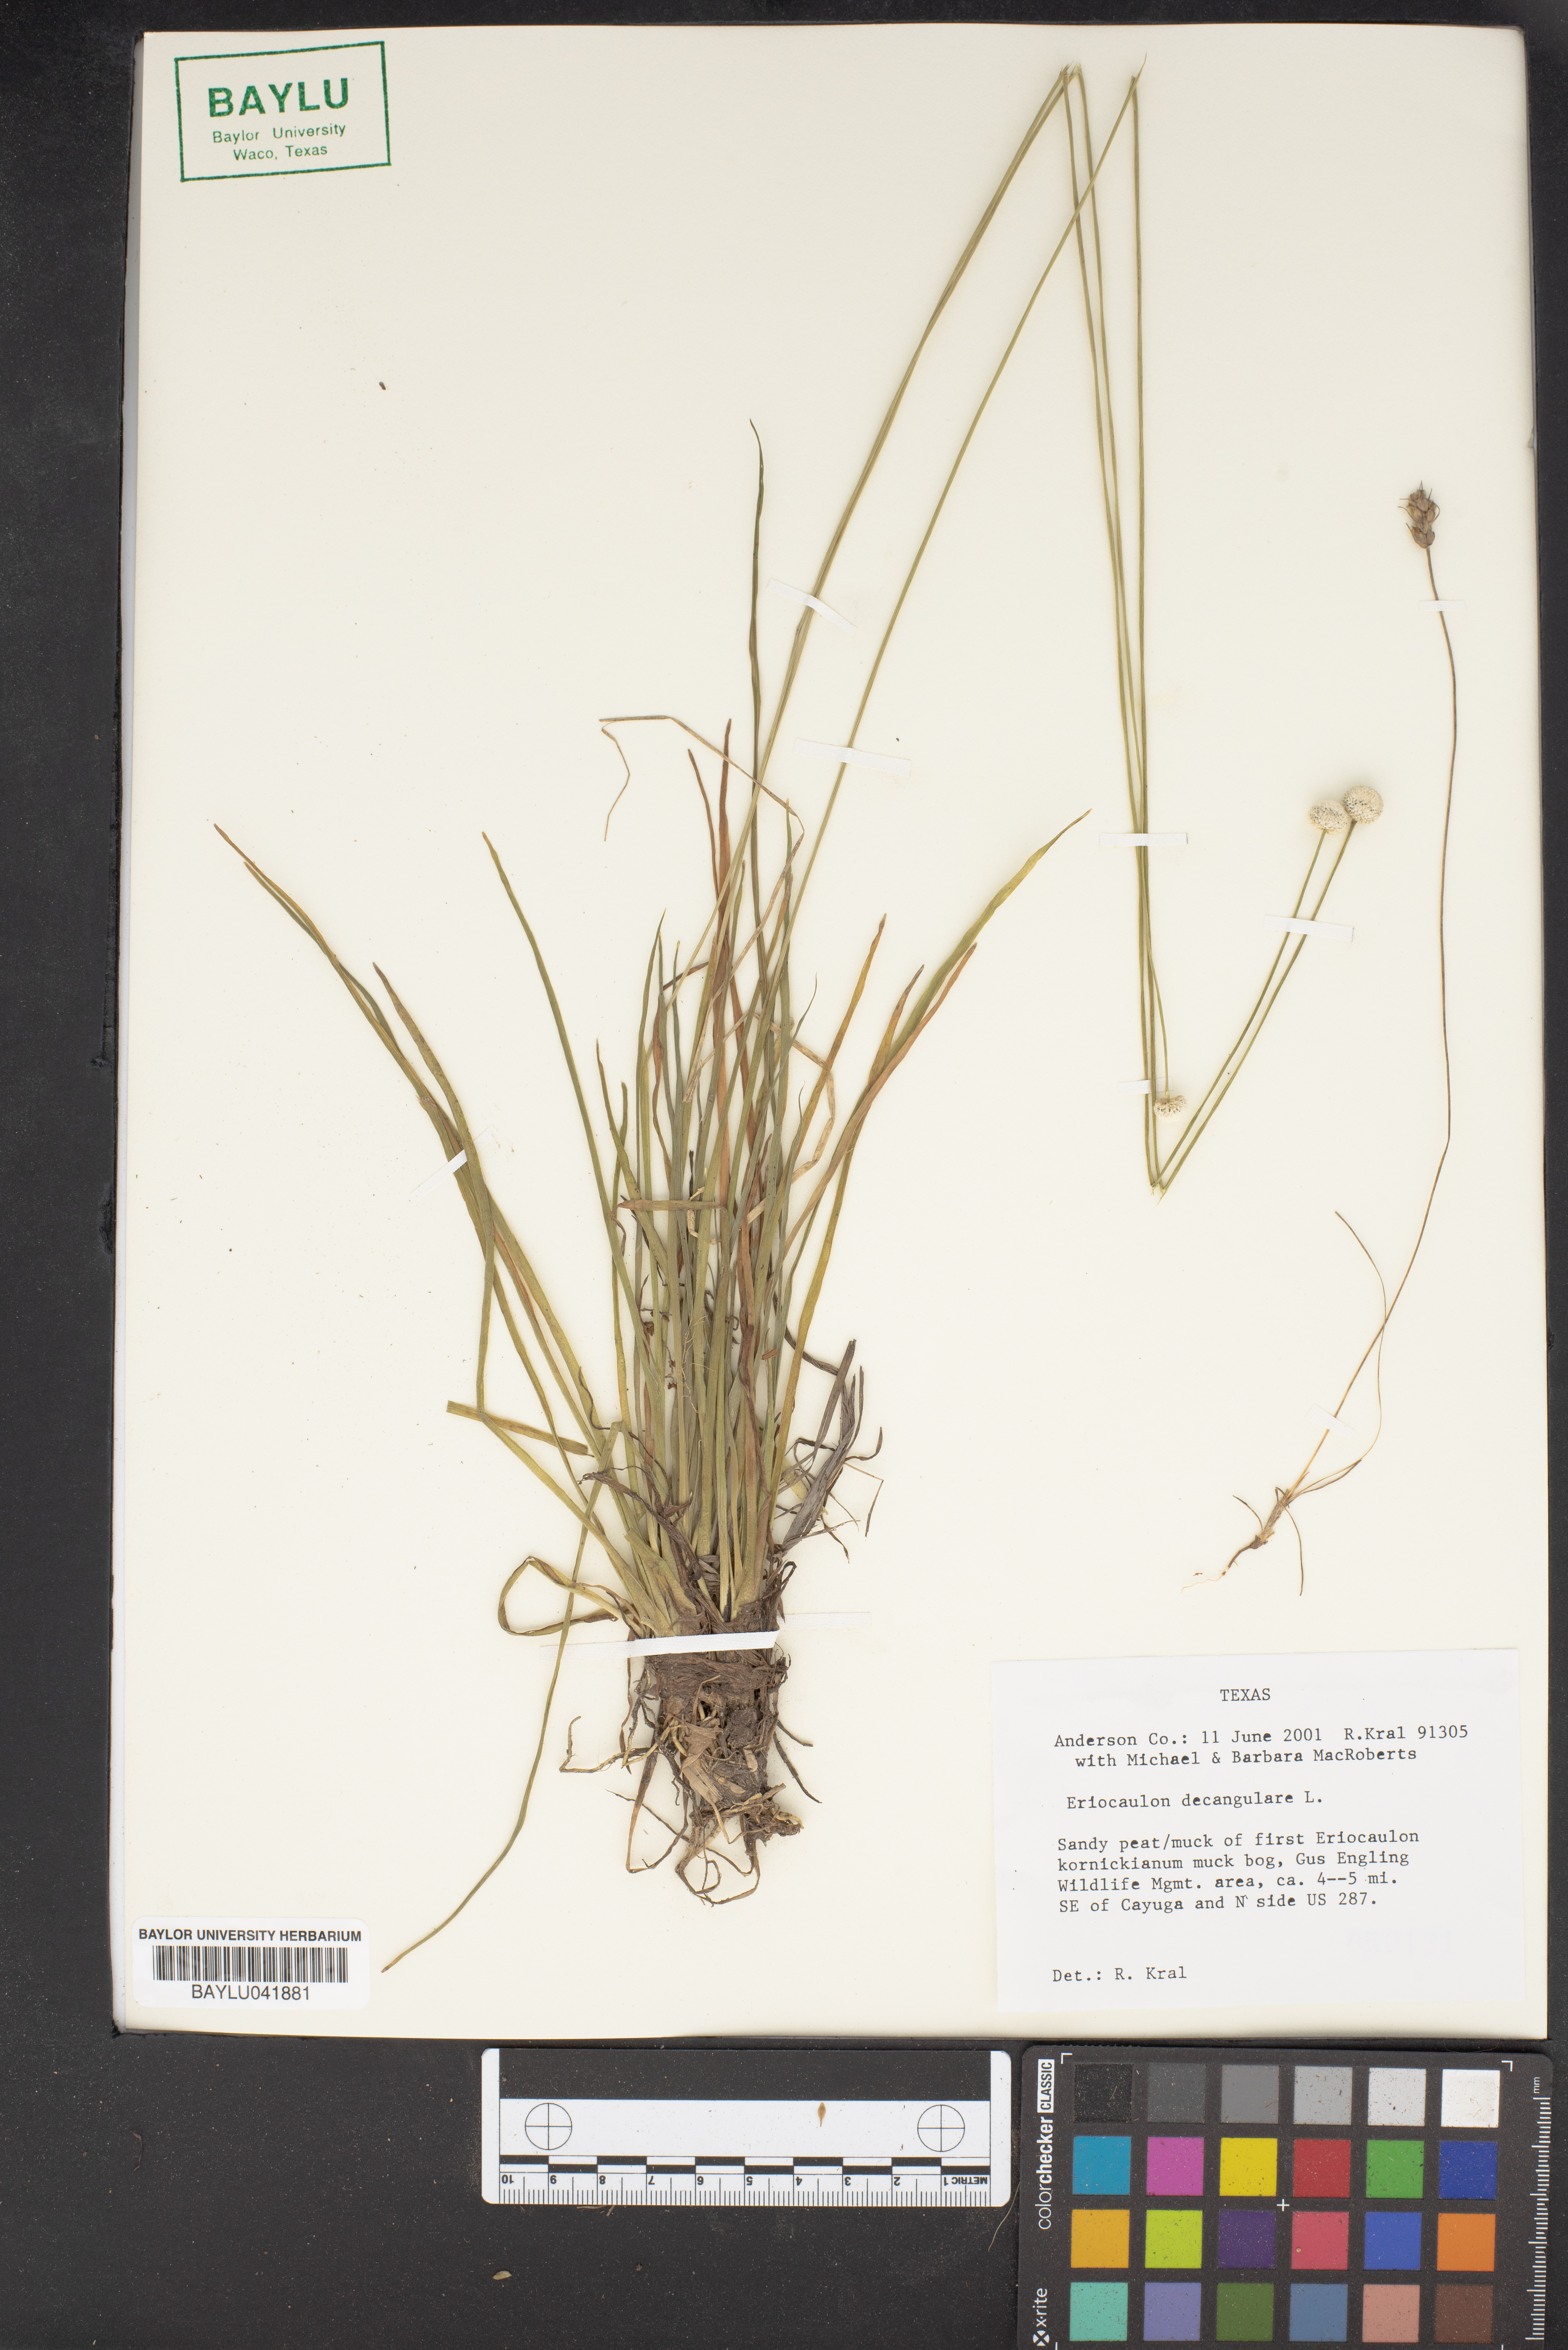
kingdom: Plantae
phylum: Tracheophyta
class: Liliopsida
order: Poales
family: Eriocaulaceae
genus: Eriocaulon
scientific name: Eriocaulon decangulare
